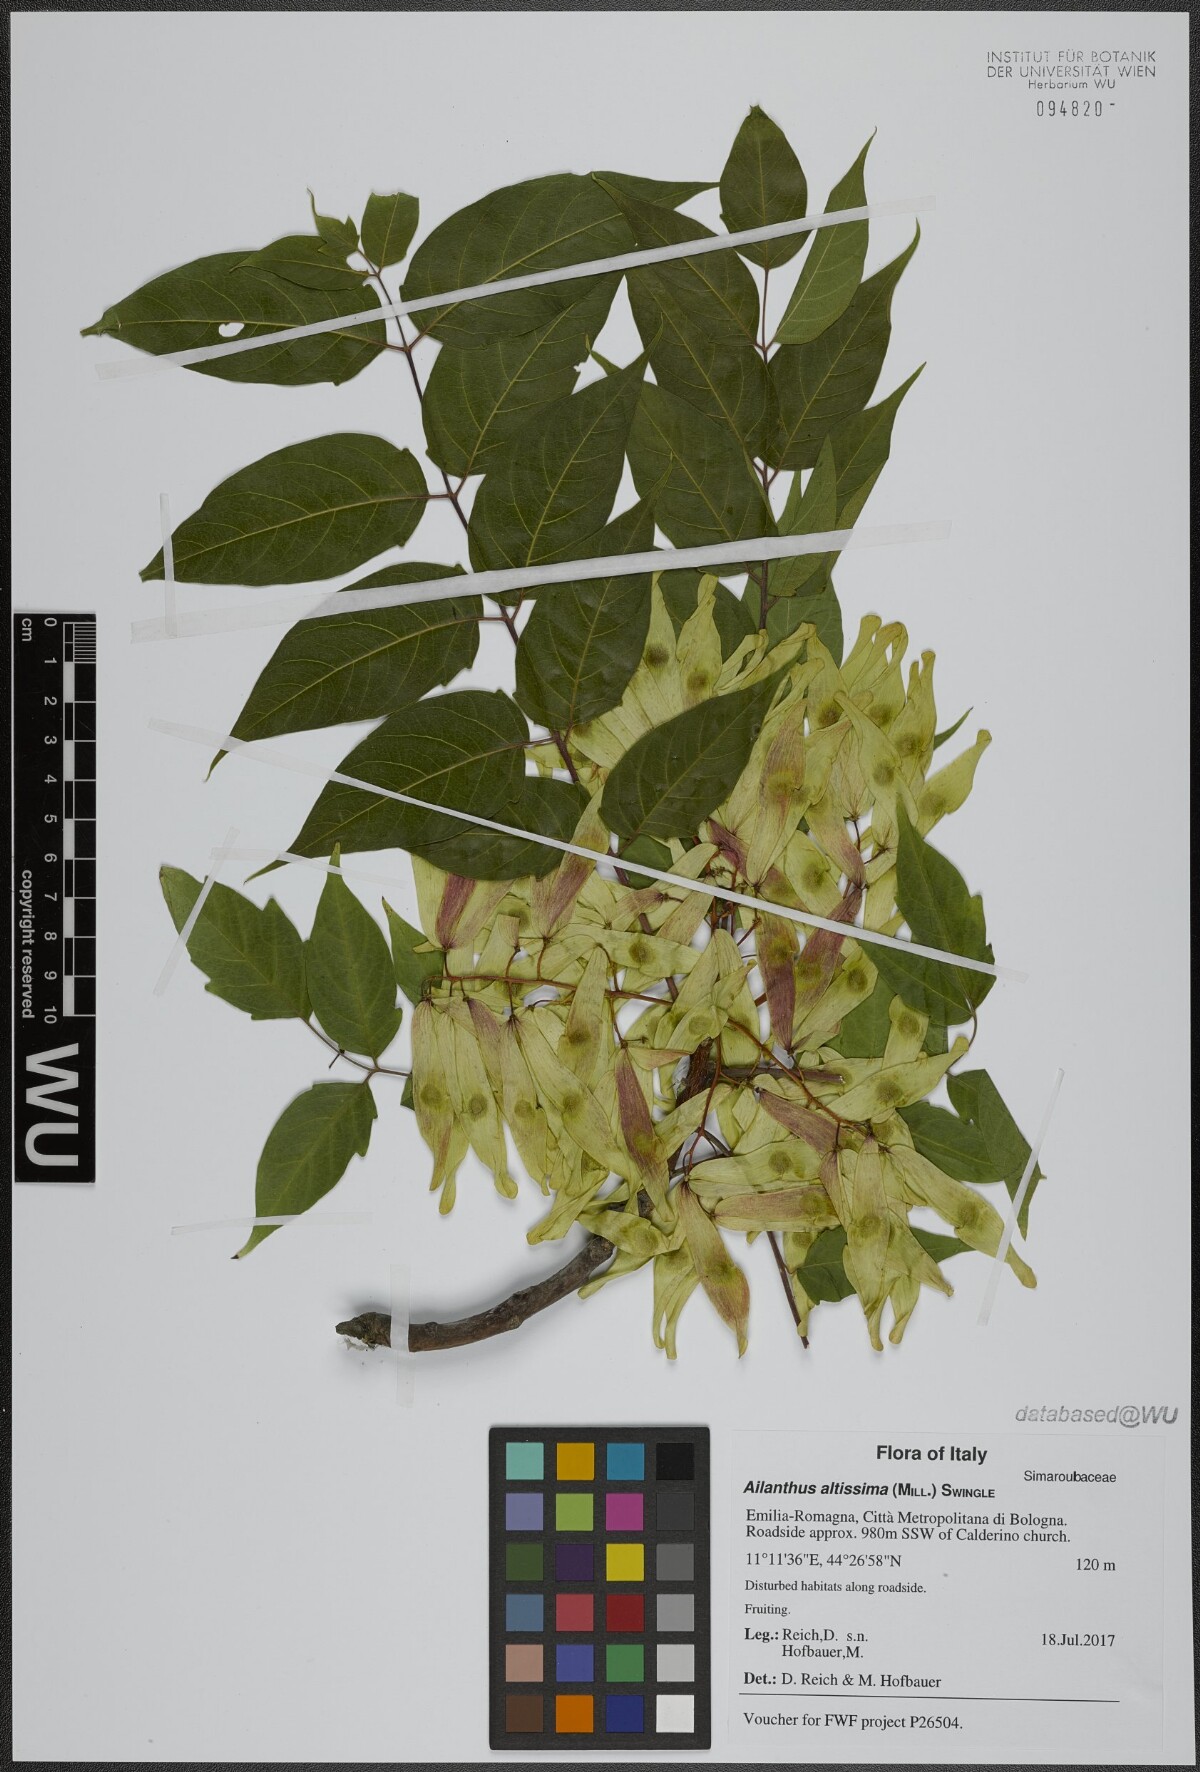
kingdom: Plantae
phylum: Tracheophyta
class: Magnoliopsida
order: Sapindales
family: Simaroubaceae
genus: Ailanthus
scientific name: Ailanthus altissima
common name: Tree-of-heaven
